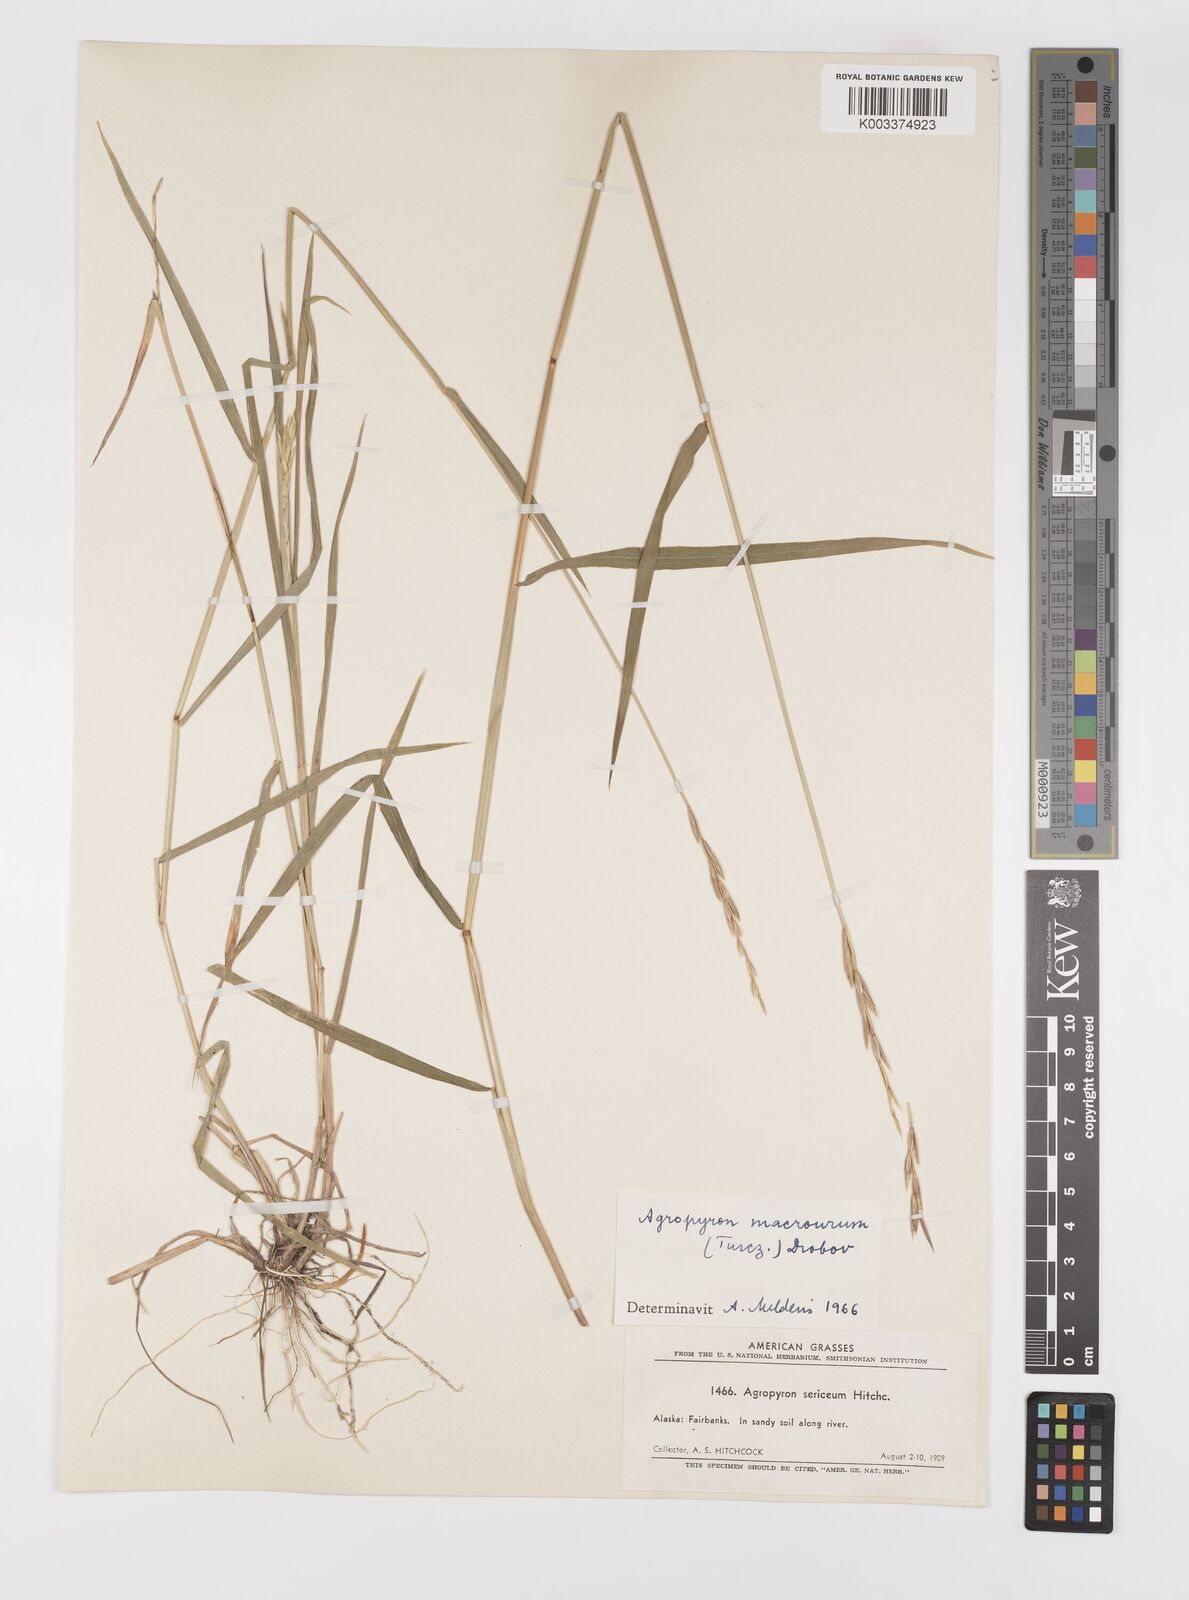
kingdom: Plantae
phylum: Tracheophyta
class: Liliopsida
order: Poales
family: Poaceae
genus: Elymus
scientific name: Elymus macrourus
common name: Northern wheatgrass
